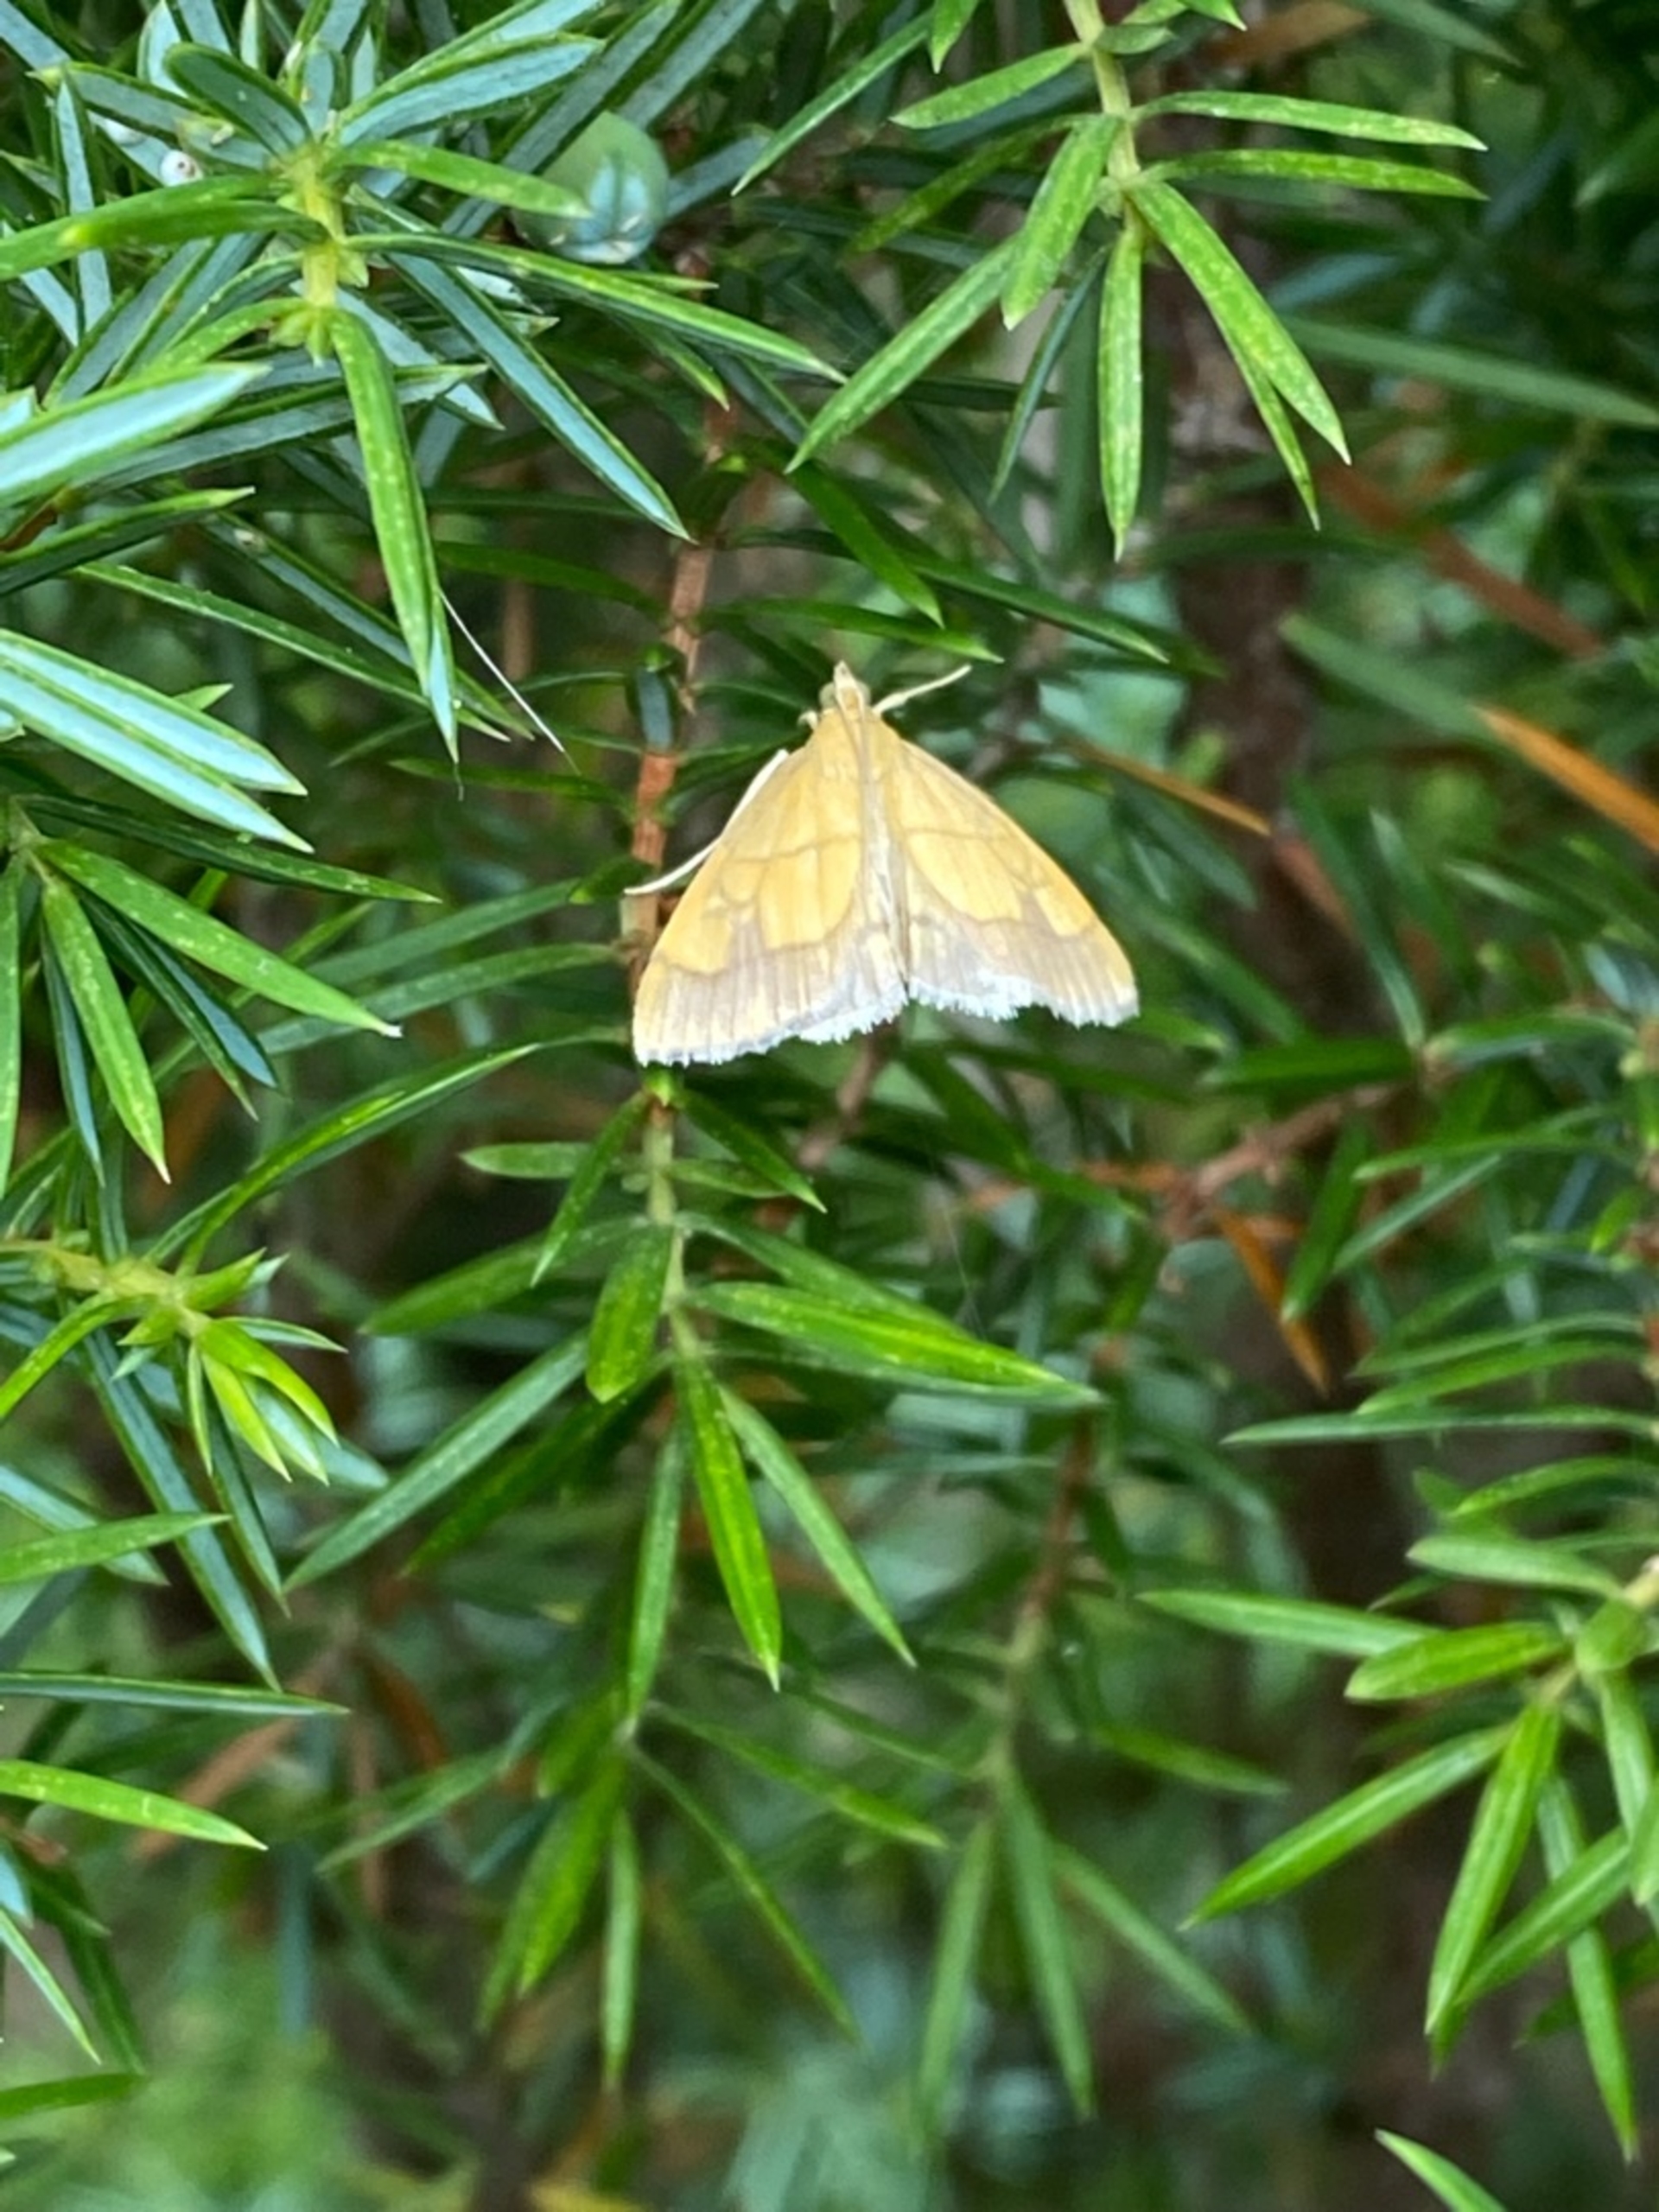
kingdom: Animalia
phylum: Arthropoda
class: Insecta
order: Lepidoptera
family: Crambidae
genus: Evergestis
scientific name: Evergestis limbata
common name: Løgkarsehalvmøl
